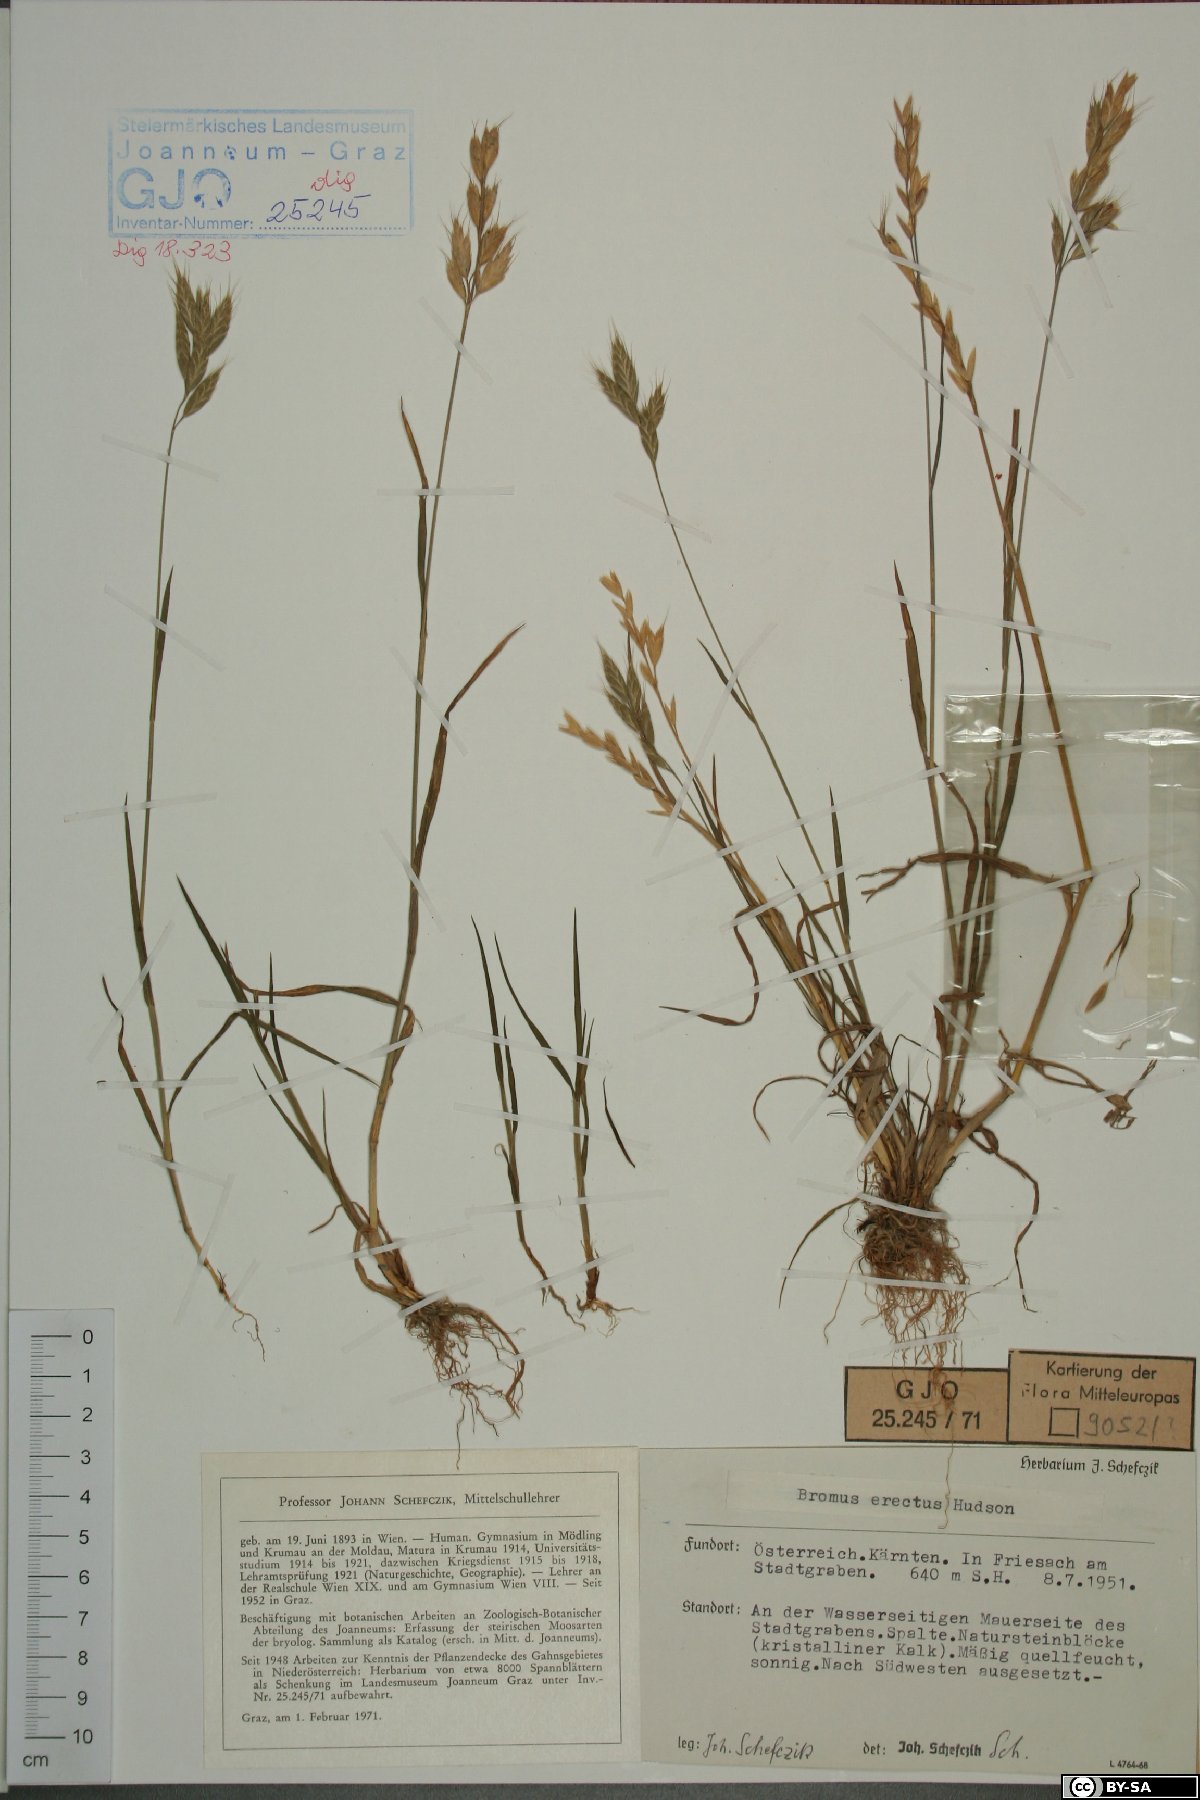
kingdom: Plantae
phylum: Tracheophyta
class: Liliopsida
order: Poales
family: Poaceae
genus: Bromus
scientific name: Bromus erectus
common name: Erect brome
